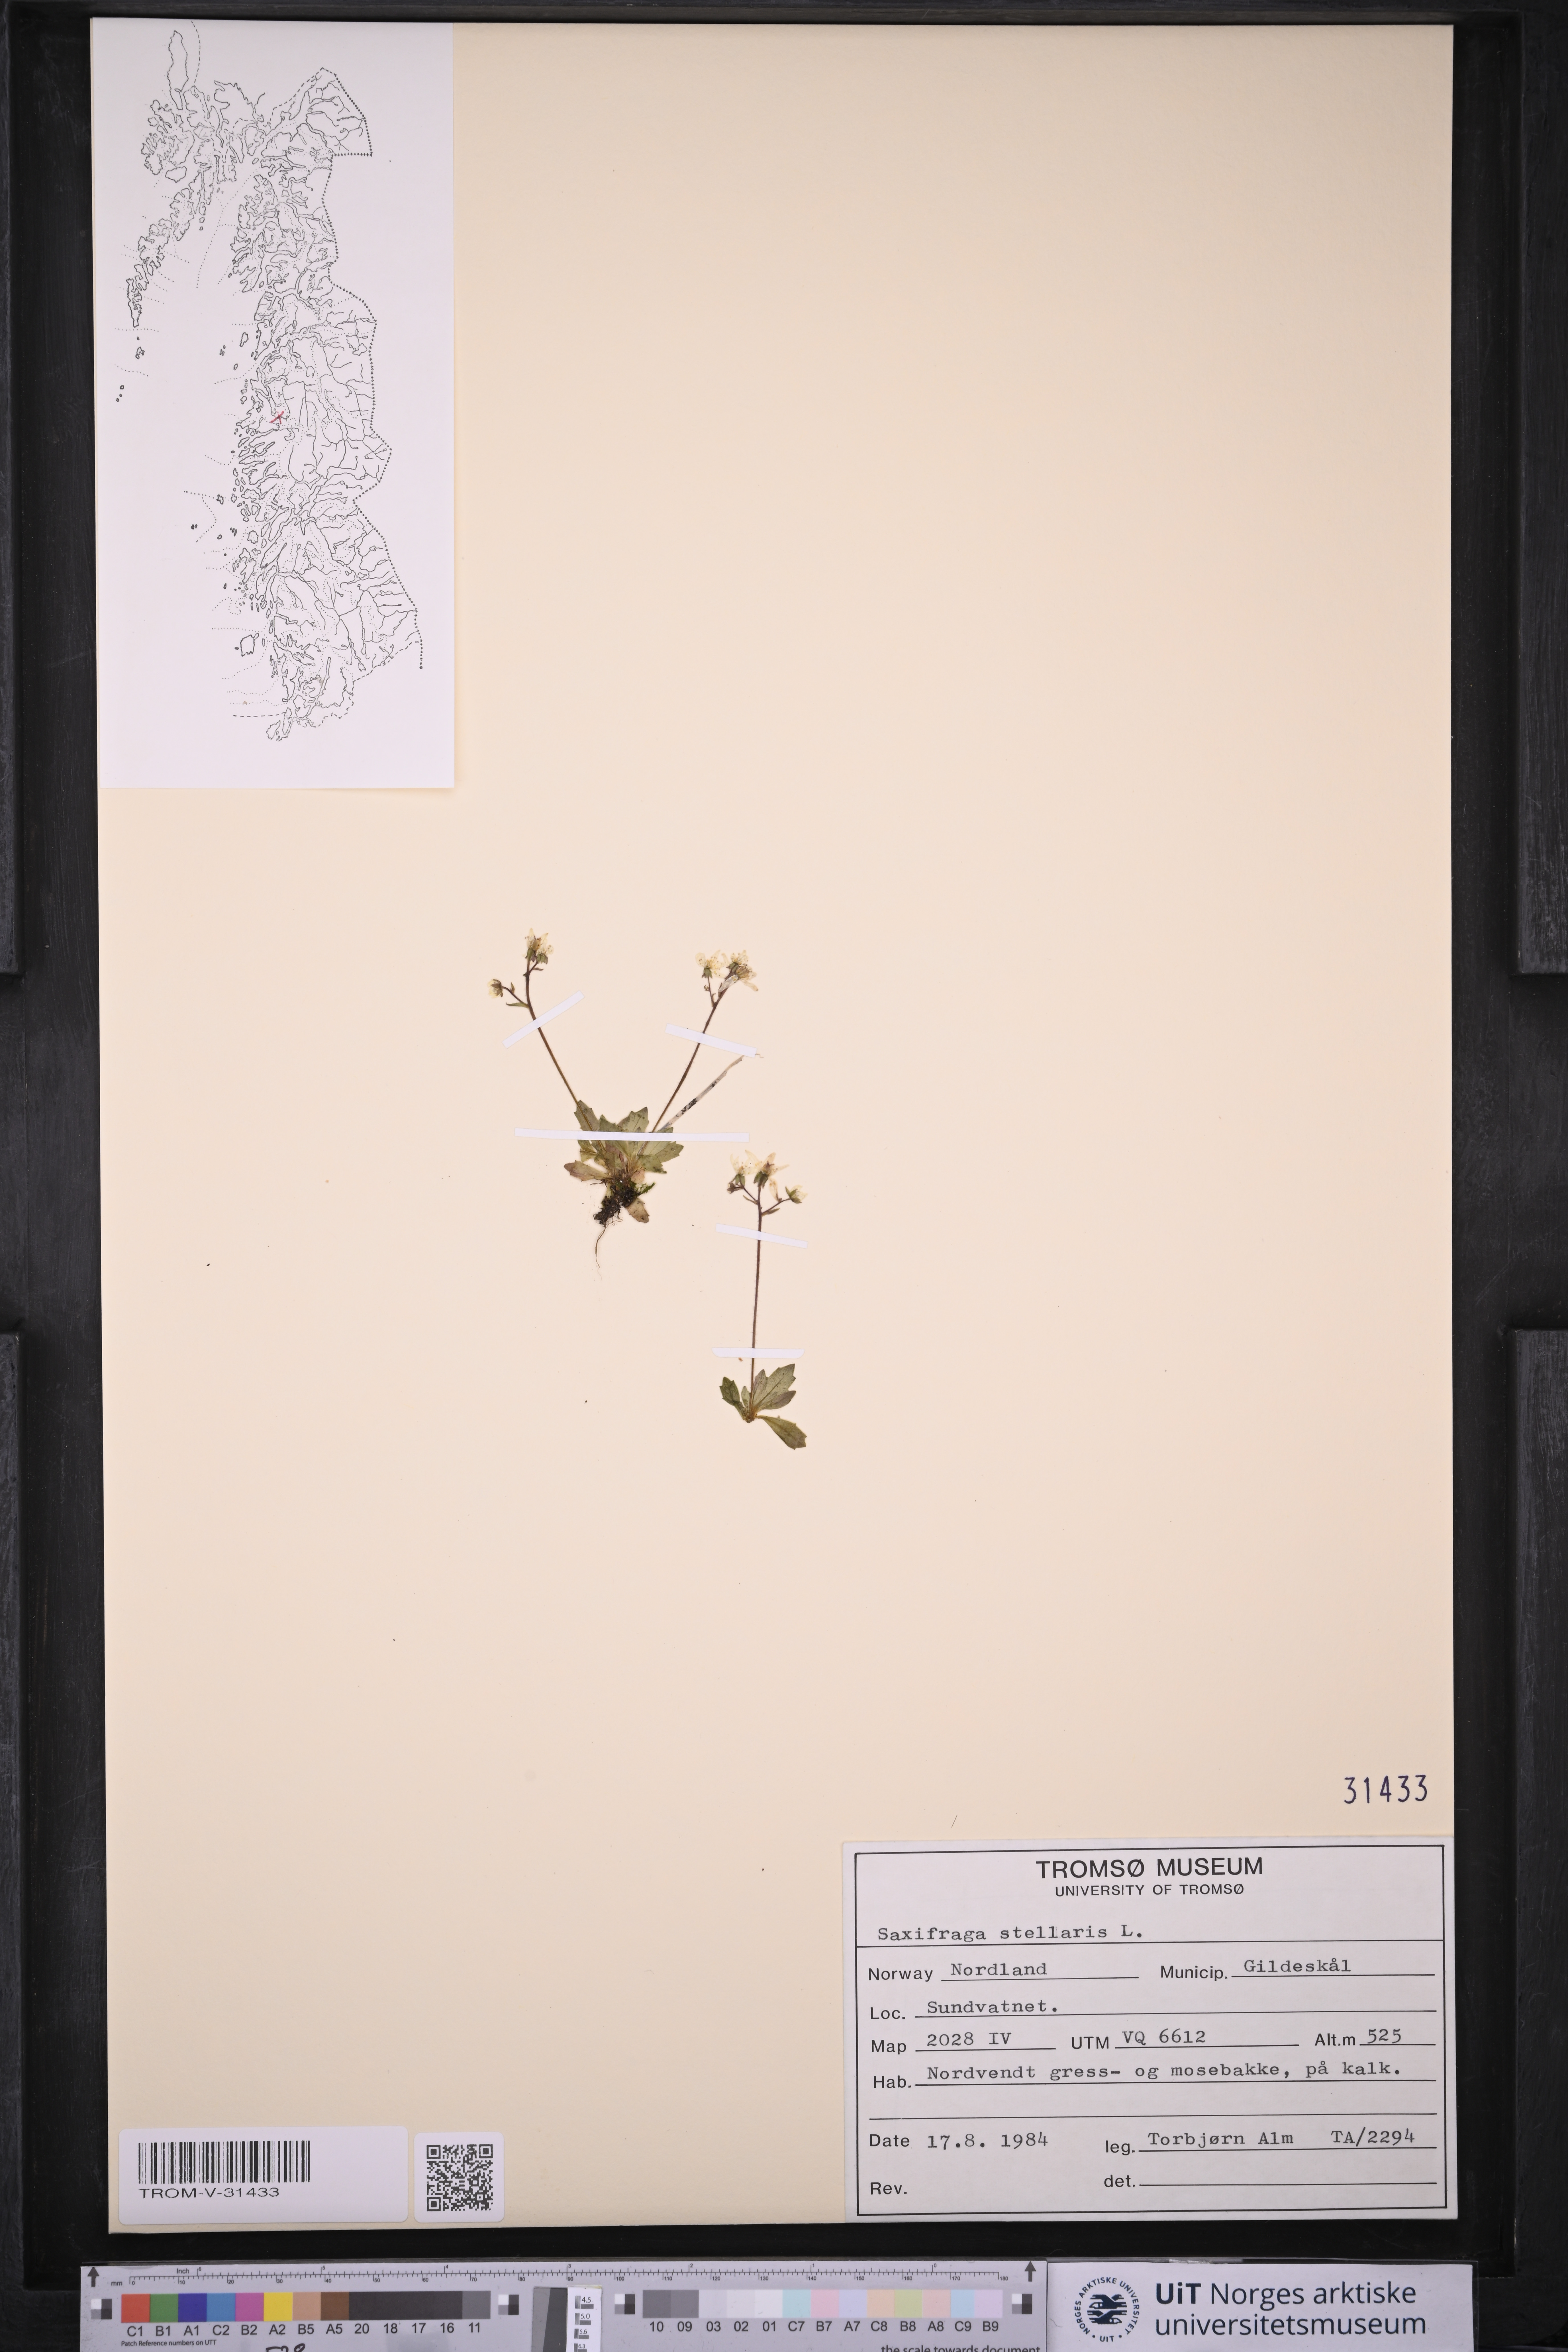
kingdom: Plantae
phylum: Tracheophyta
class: Magnoliopsida
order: Saxifragales
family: Saxifragaceae
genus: Micranthes
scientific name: Micranthes stellaris
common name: Starry saxifrage
